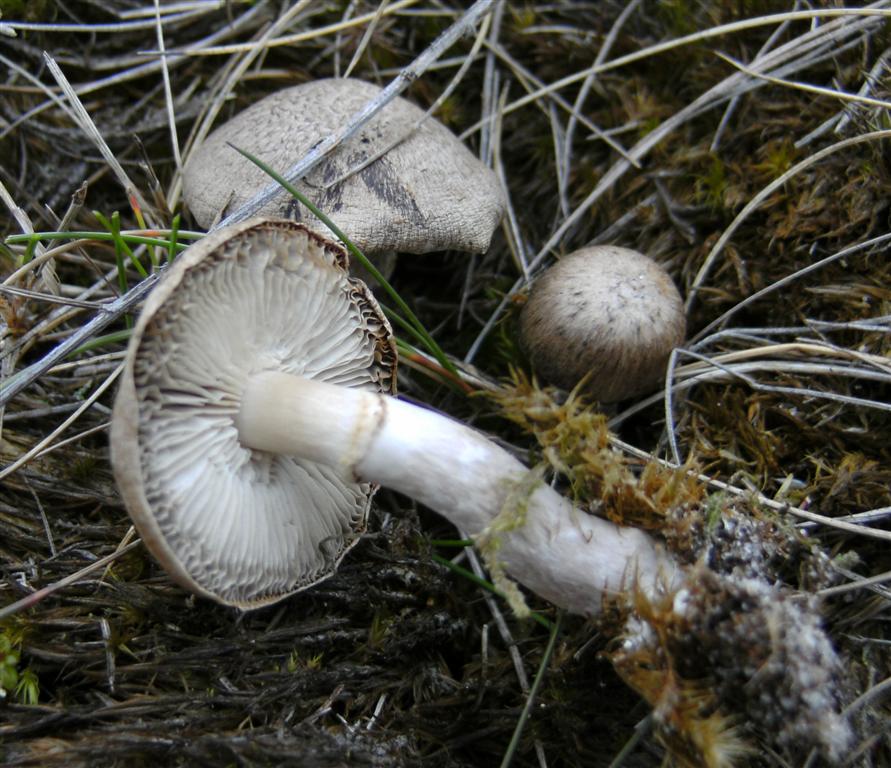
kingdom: Fungi
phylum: Basidiomycota
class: Agaricomycetes
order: Agaricales
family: Tricholomataceae
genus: Tricholoma
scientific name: Tricholoma cingulatum
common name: ring-ridderhat
